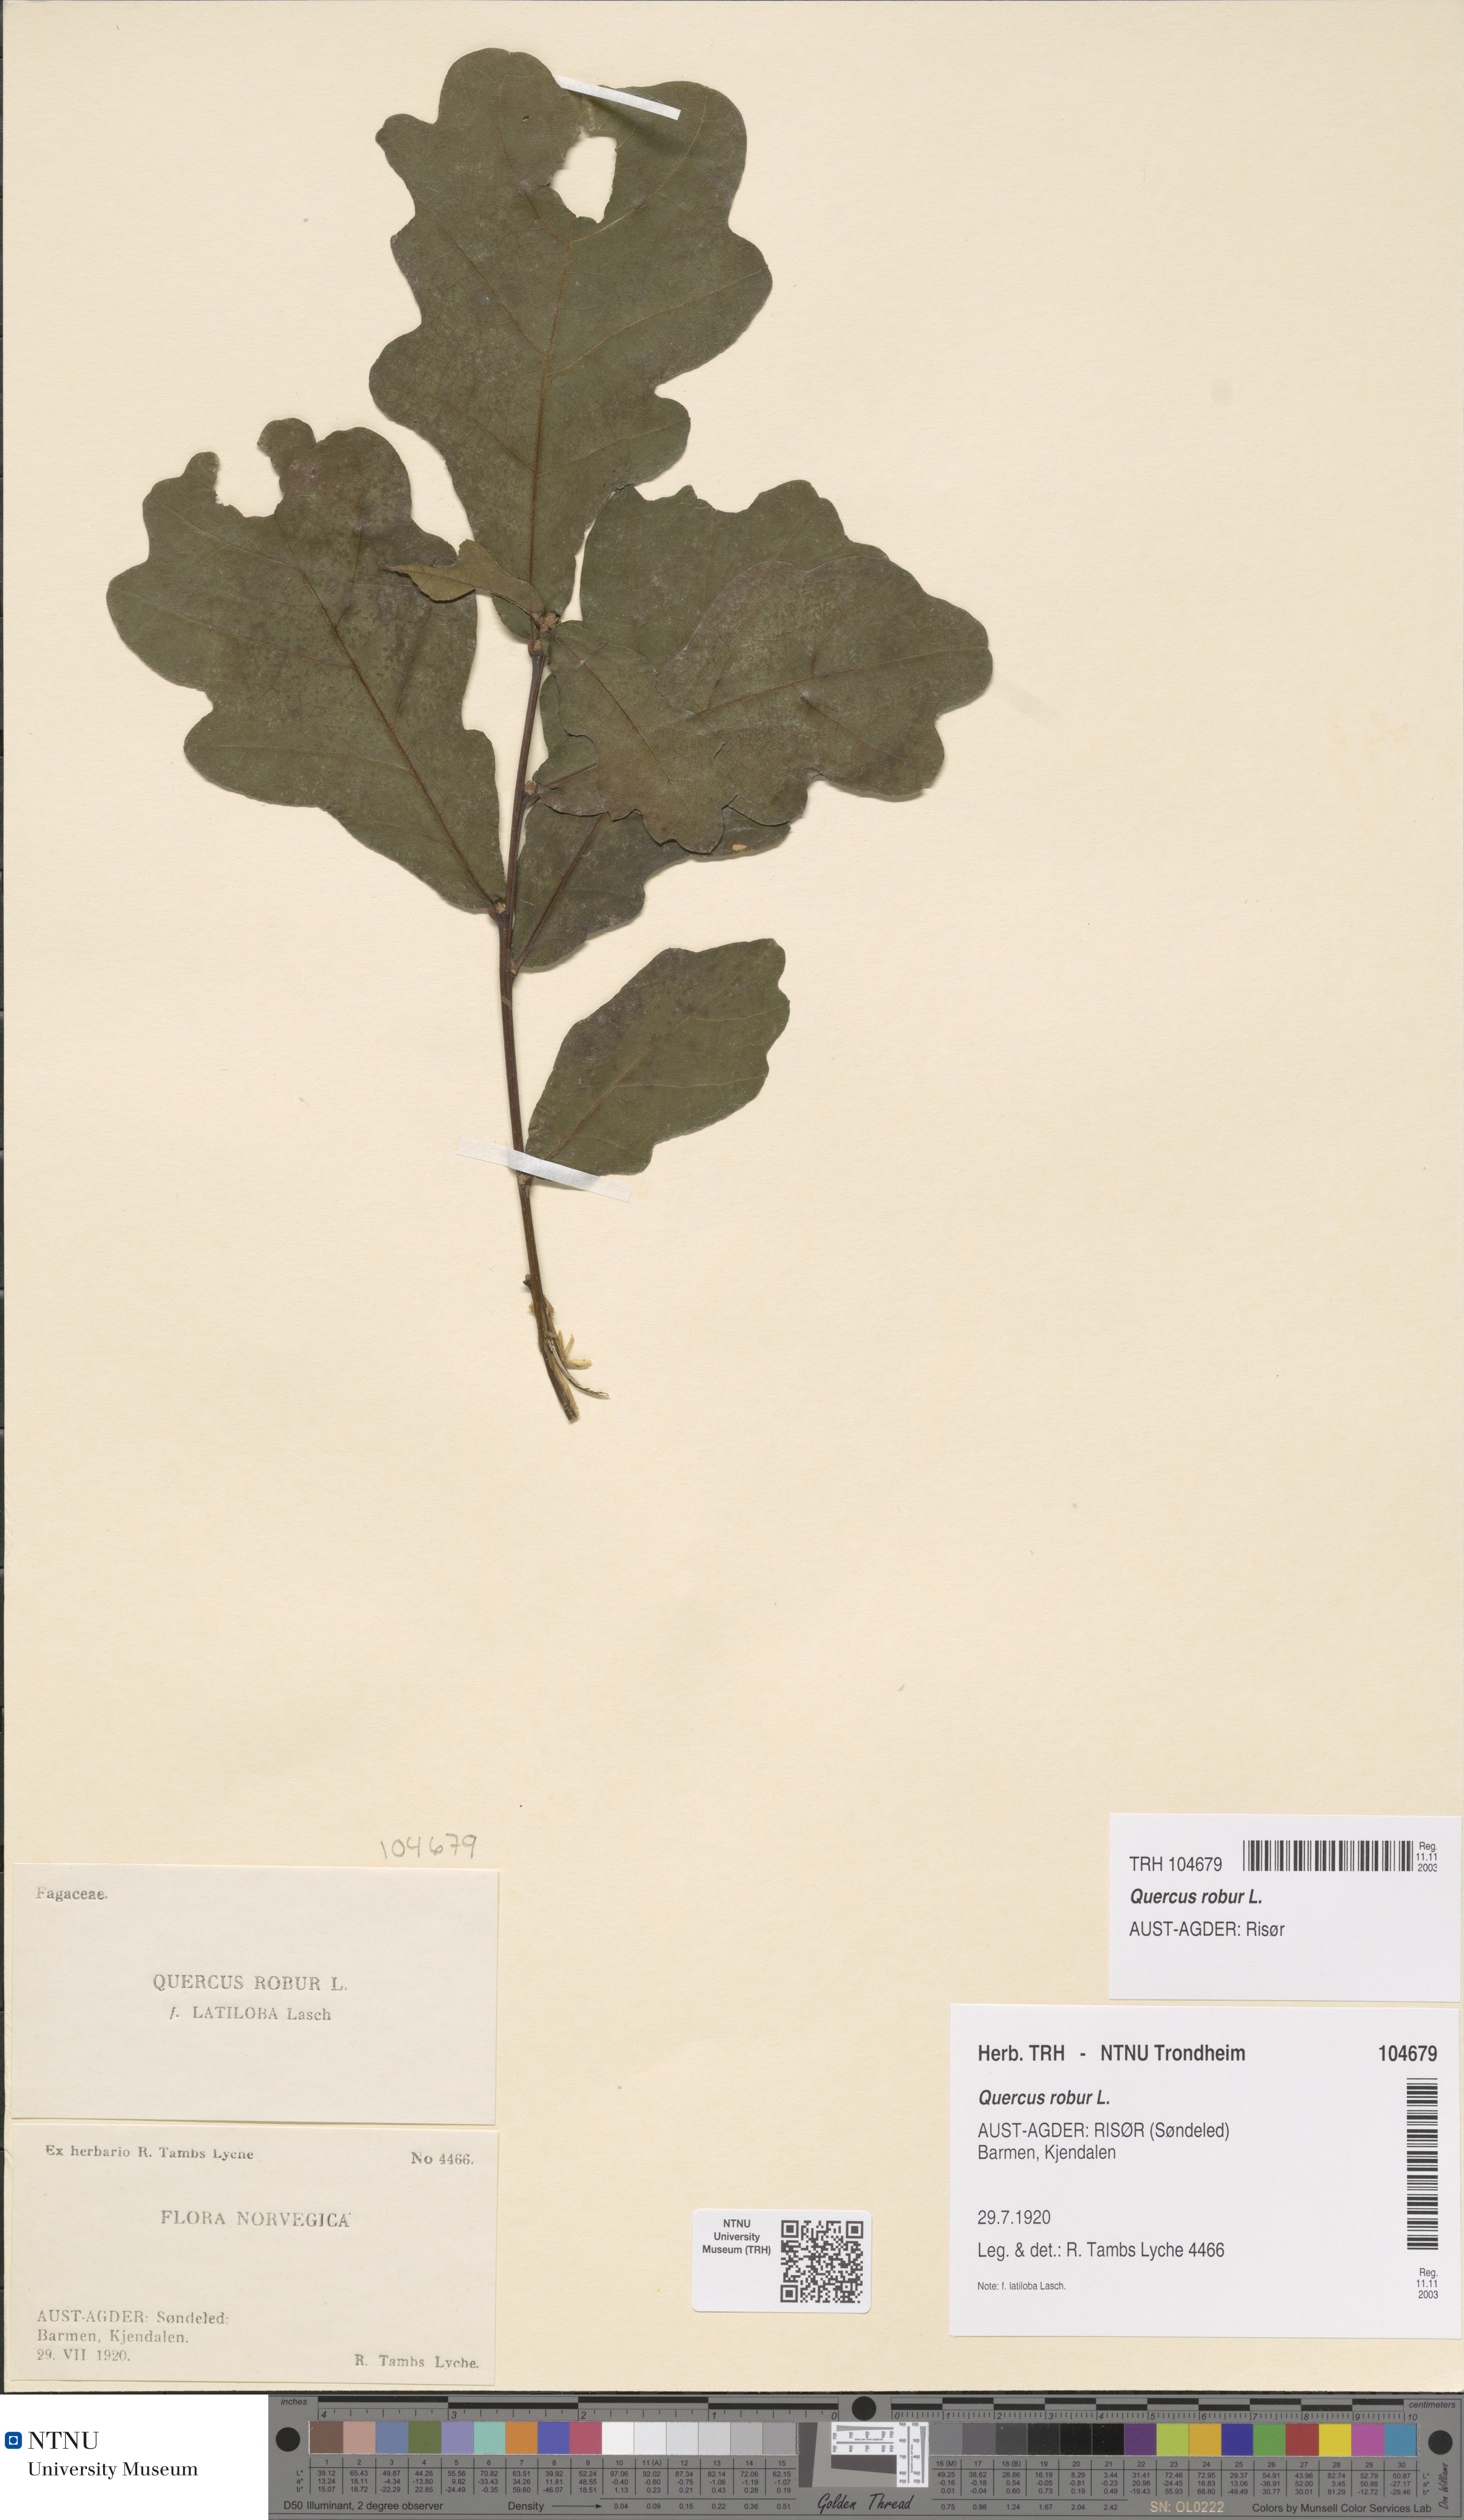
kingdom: Plantae
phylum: Tracheophyta
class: Magnoliopsida
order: Fagales
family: Fagaceae
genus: Quercus
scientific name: Quercus robur
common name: Pedunculate oak
